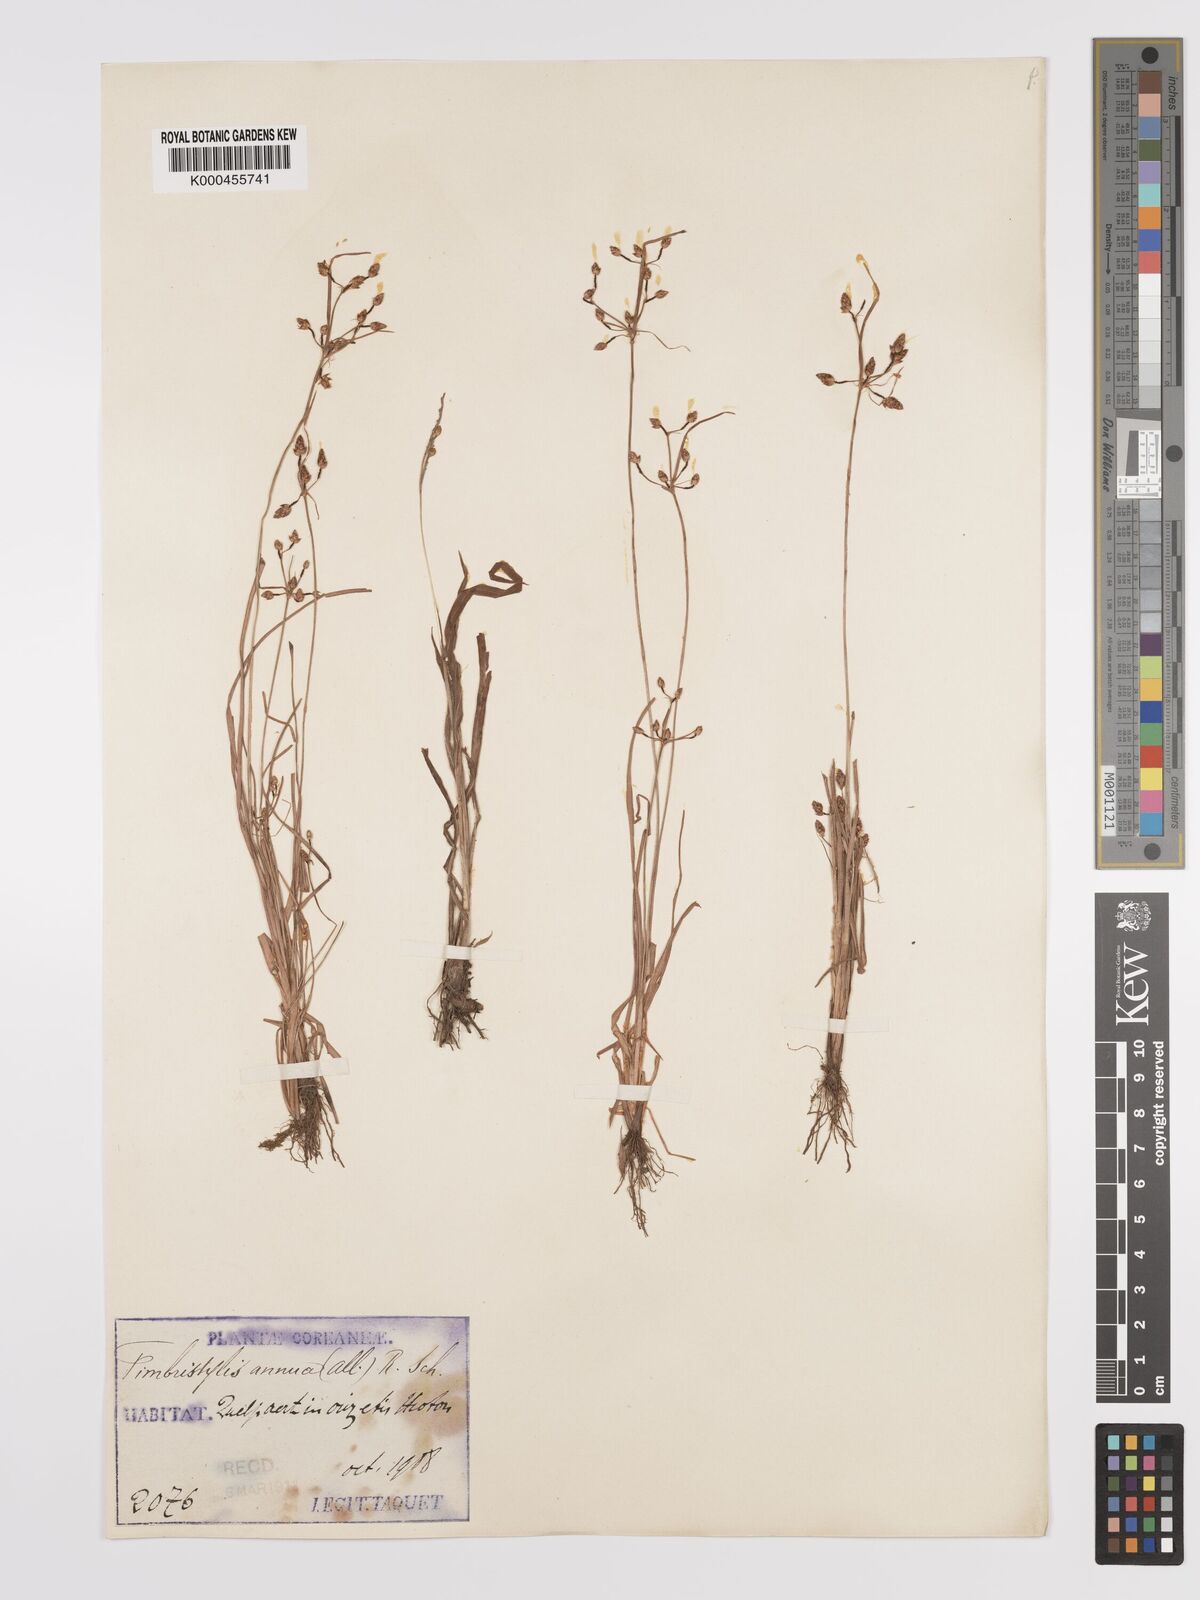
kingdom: Plantae
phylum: Tracheophyta
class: Liliopsida
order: Poales
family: Cyperaceae
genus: Fimbristylis
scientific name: Fimbristylis dichotoma
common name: Forked fimbry
